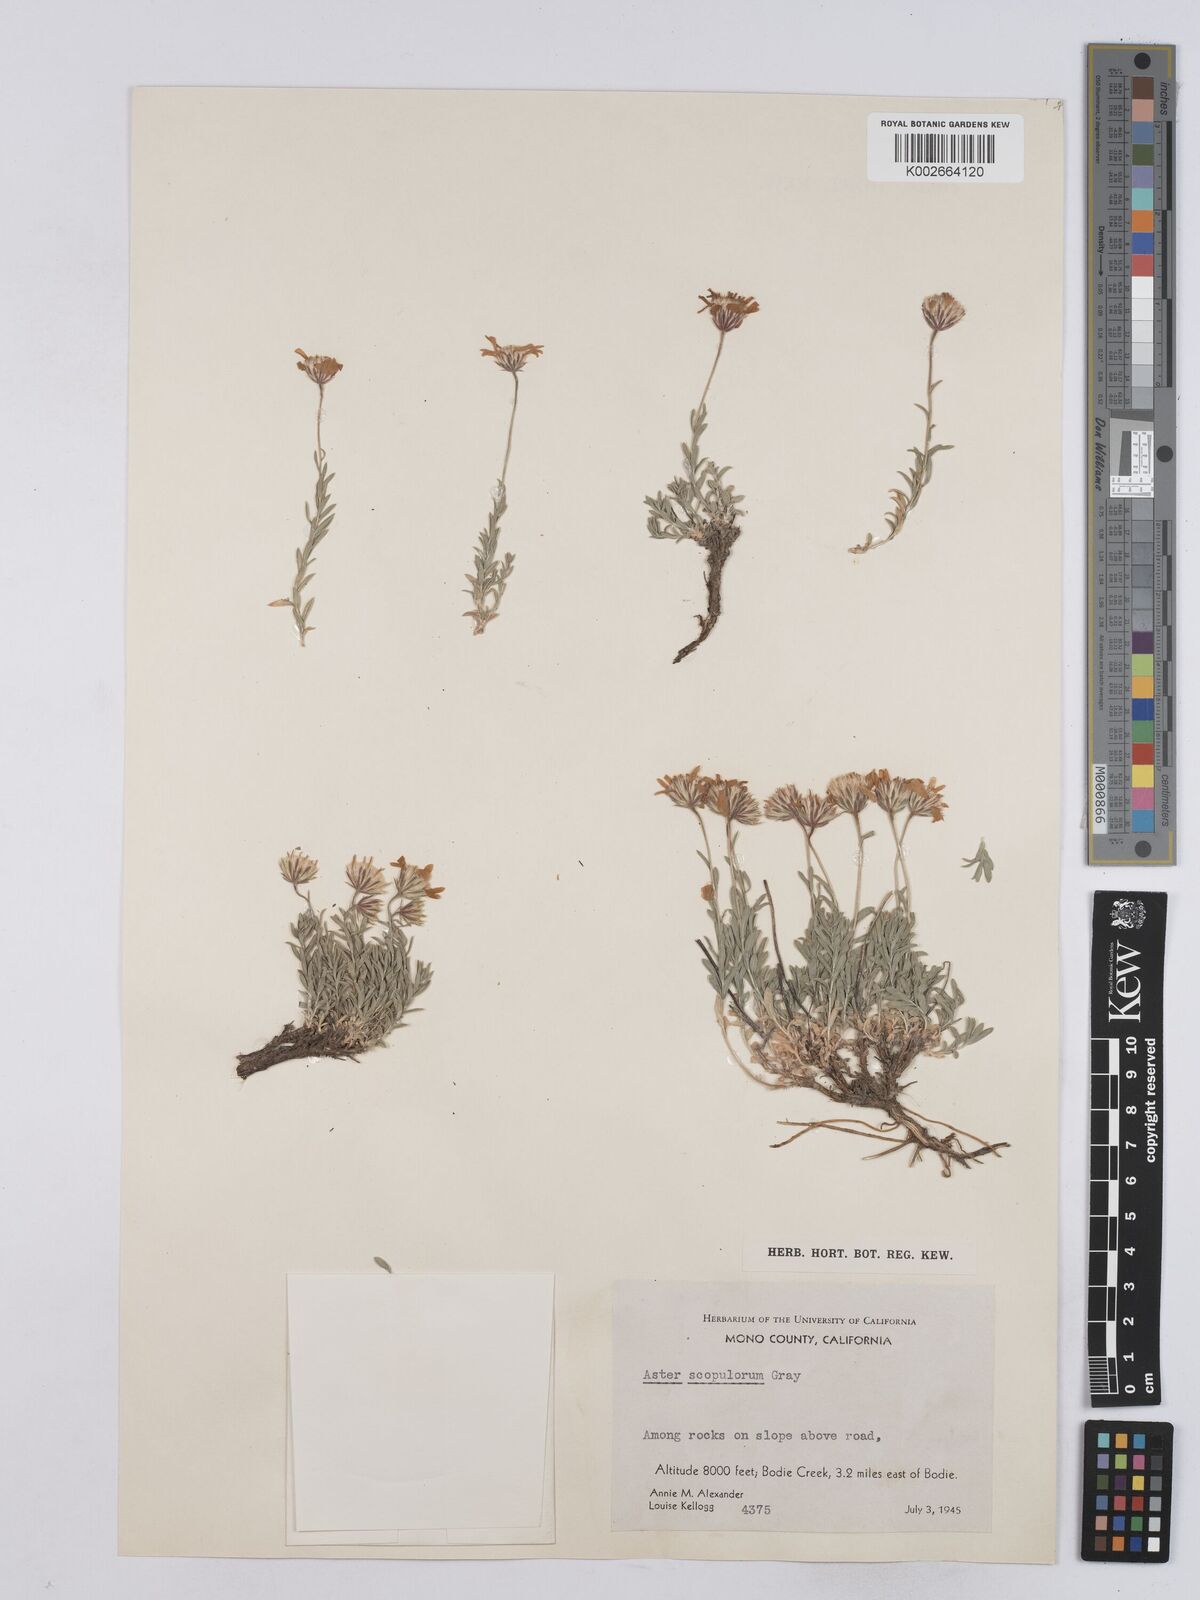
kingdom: Plantae
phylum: Tracheophyta
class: Magnoliopsida
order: Asterales
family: Asteraceae
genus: Ionactis
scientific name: Ionactis alpina
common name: Crag aster
